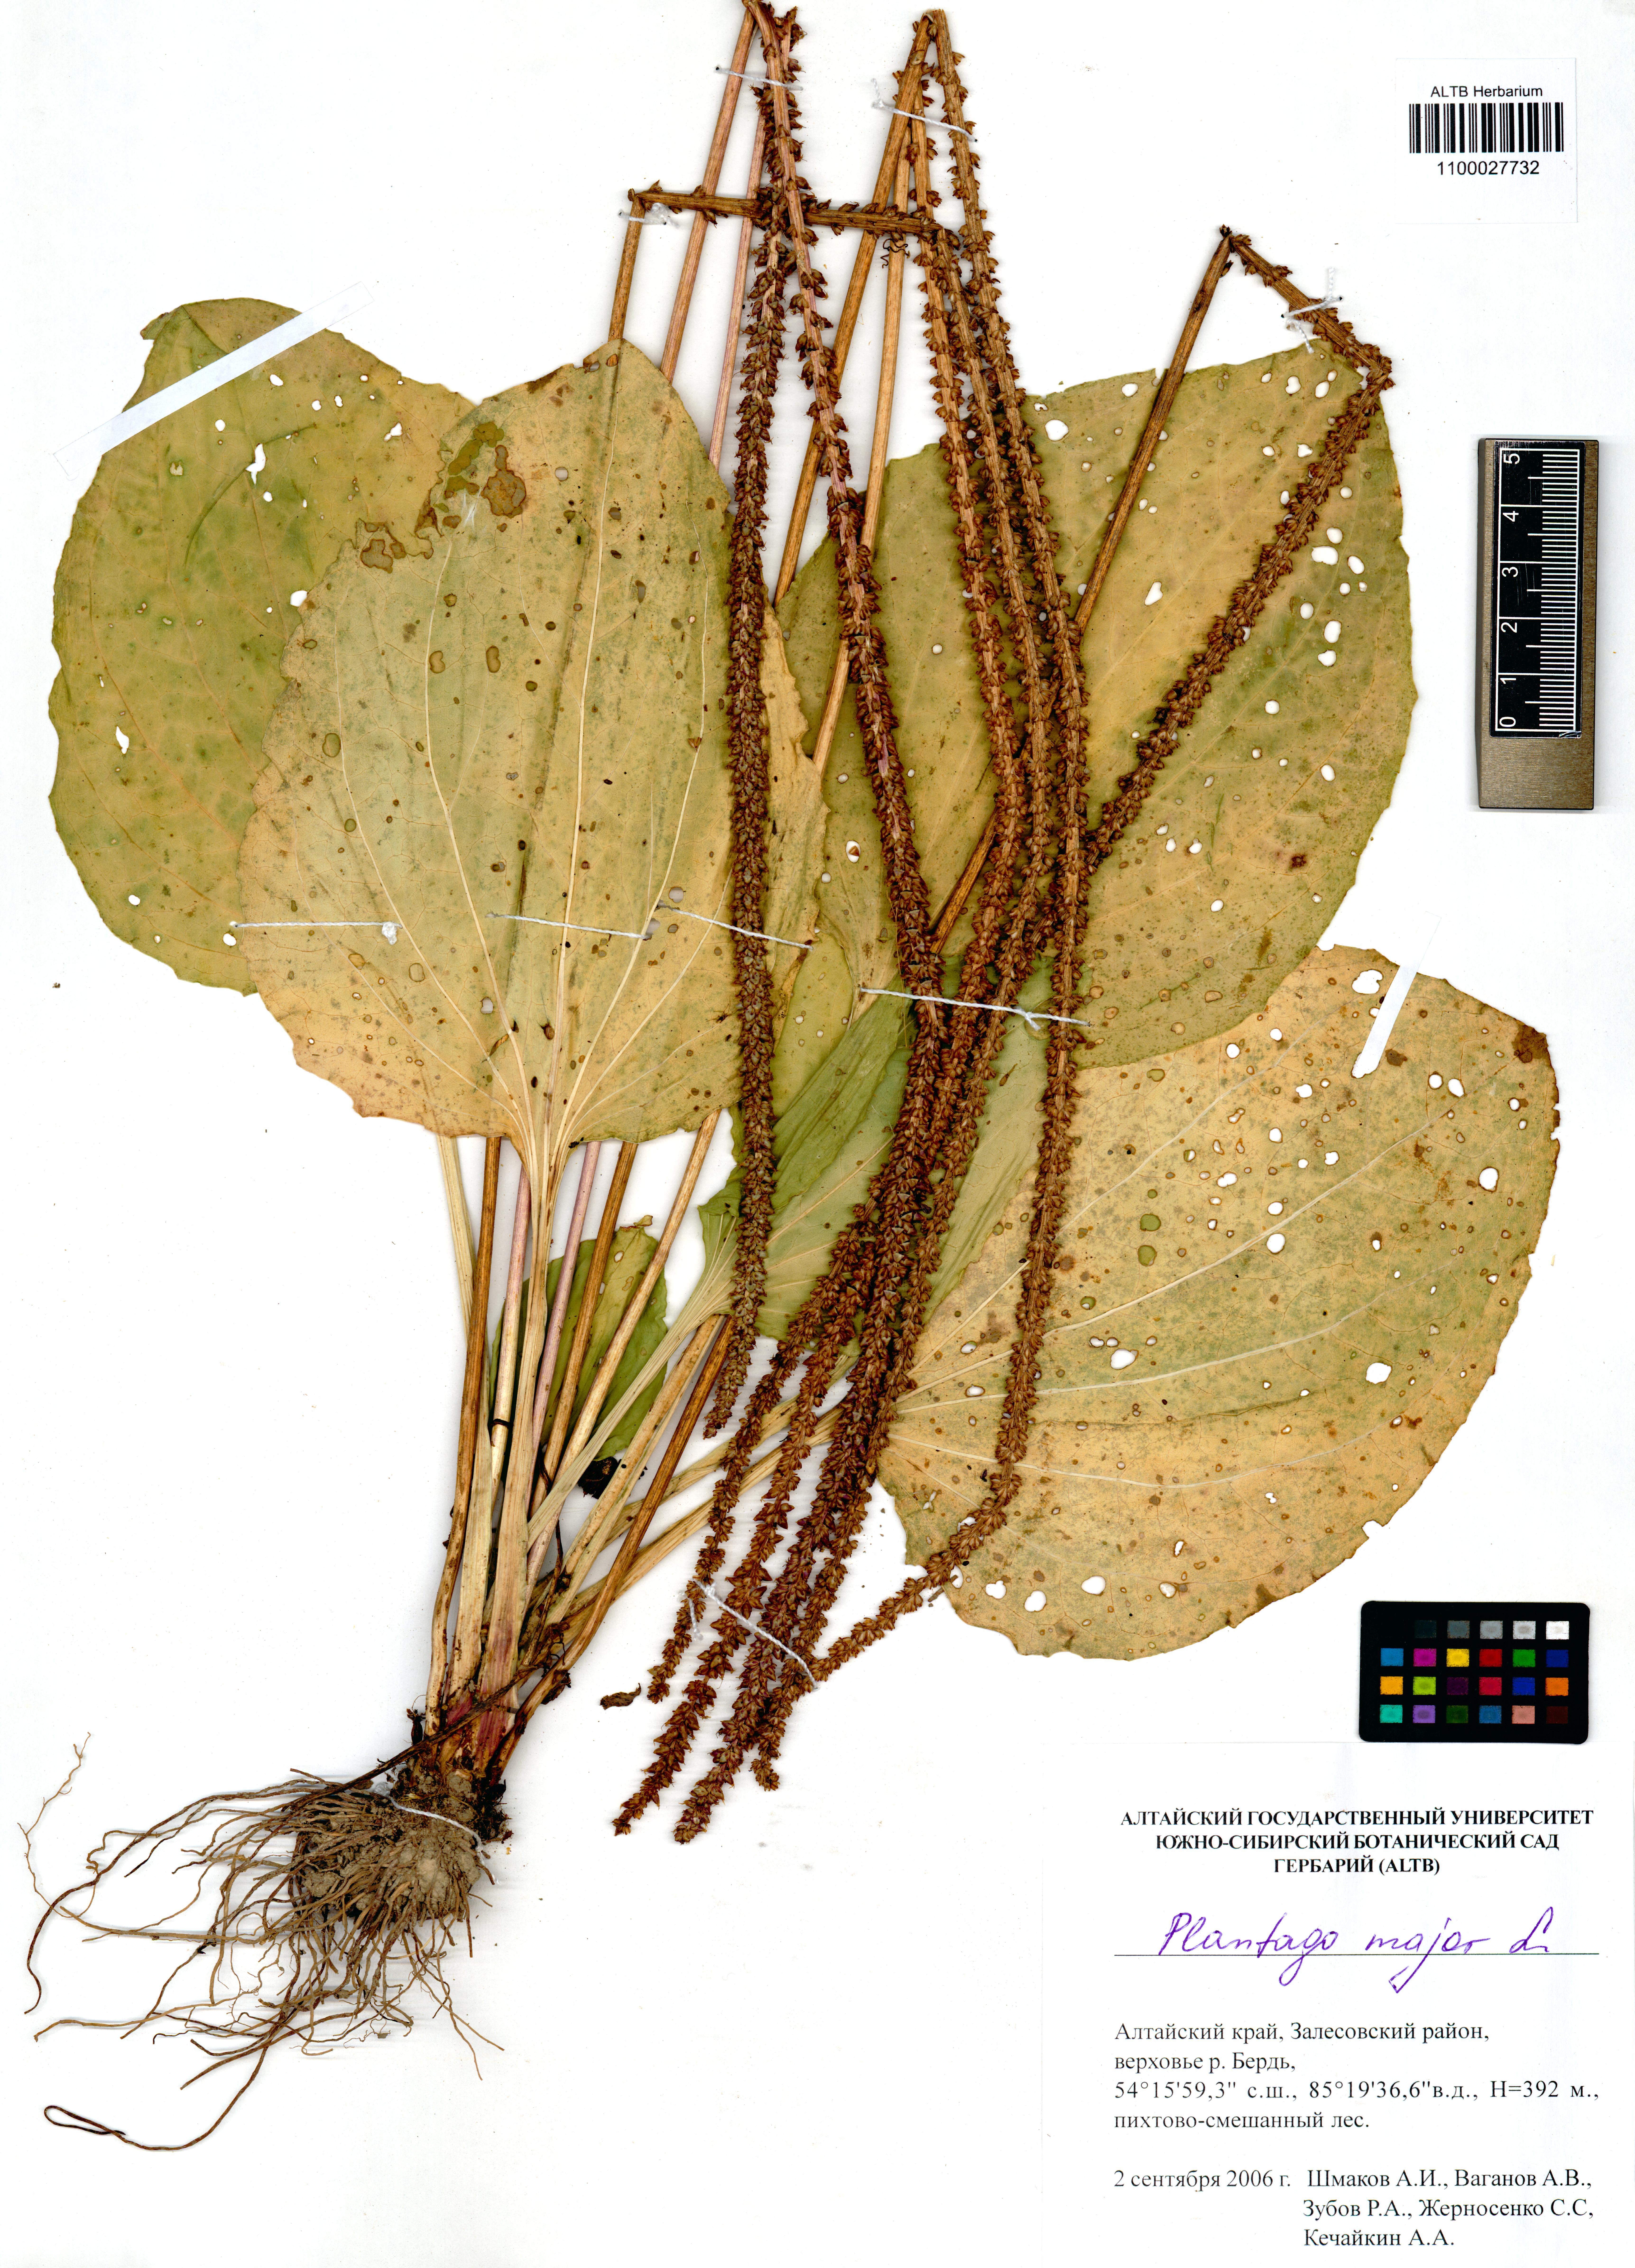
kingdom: Plantae
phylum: Tracheophyta
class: Magnoliopsida
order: Lamiales
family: Plantaginaceae
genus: Plantago
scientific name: Plantago major
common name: Common plantain
